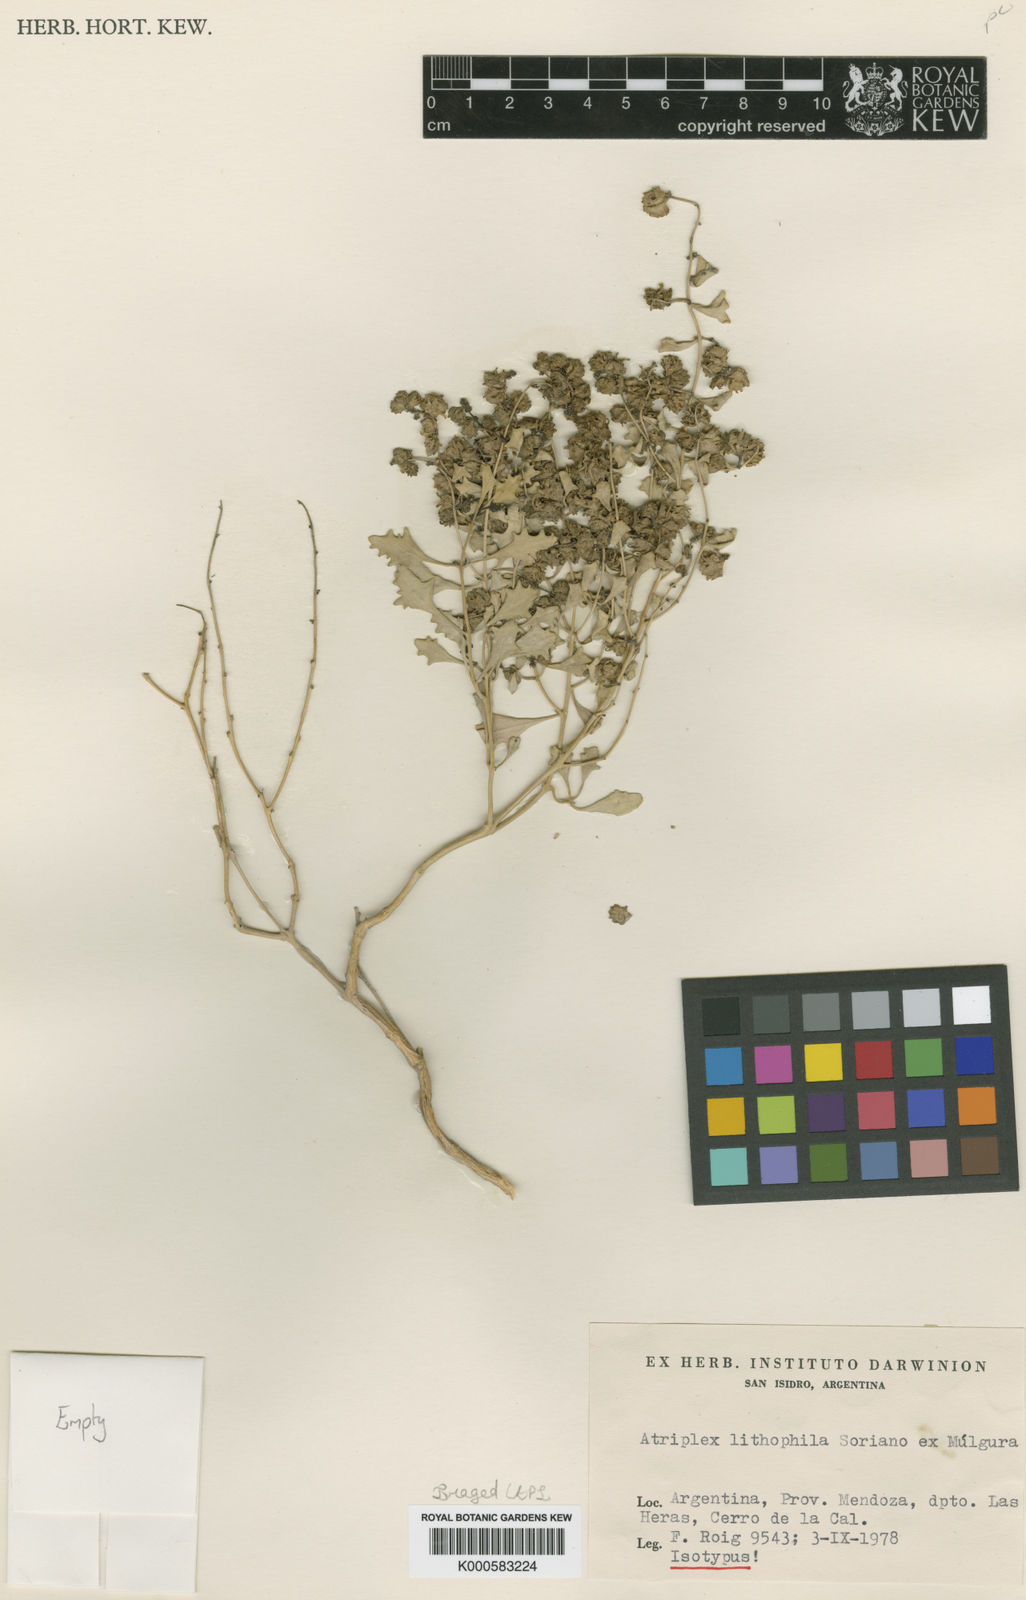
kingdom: Plantae
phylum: Tracheophyta
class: Magnoliopsida
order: Caryophyllales
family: Amaranthaceae
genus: Atriplex
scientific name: Atriplex
